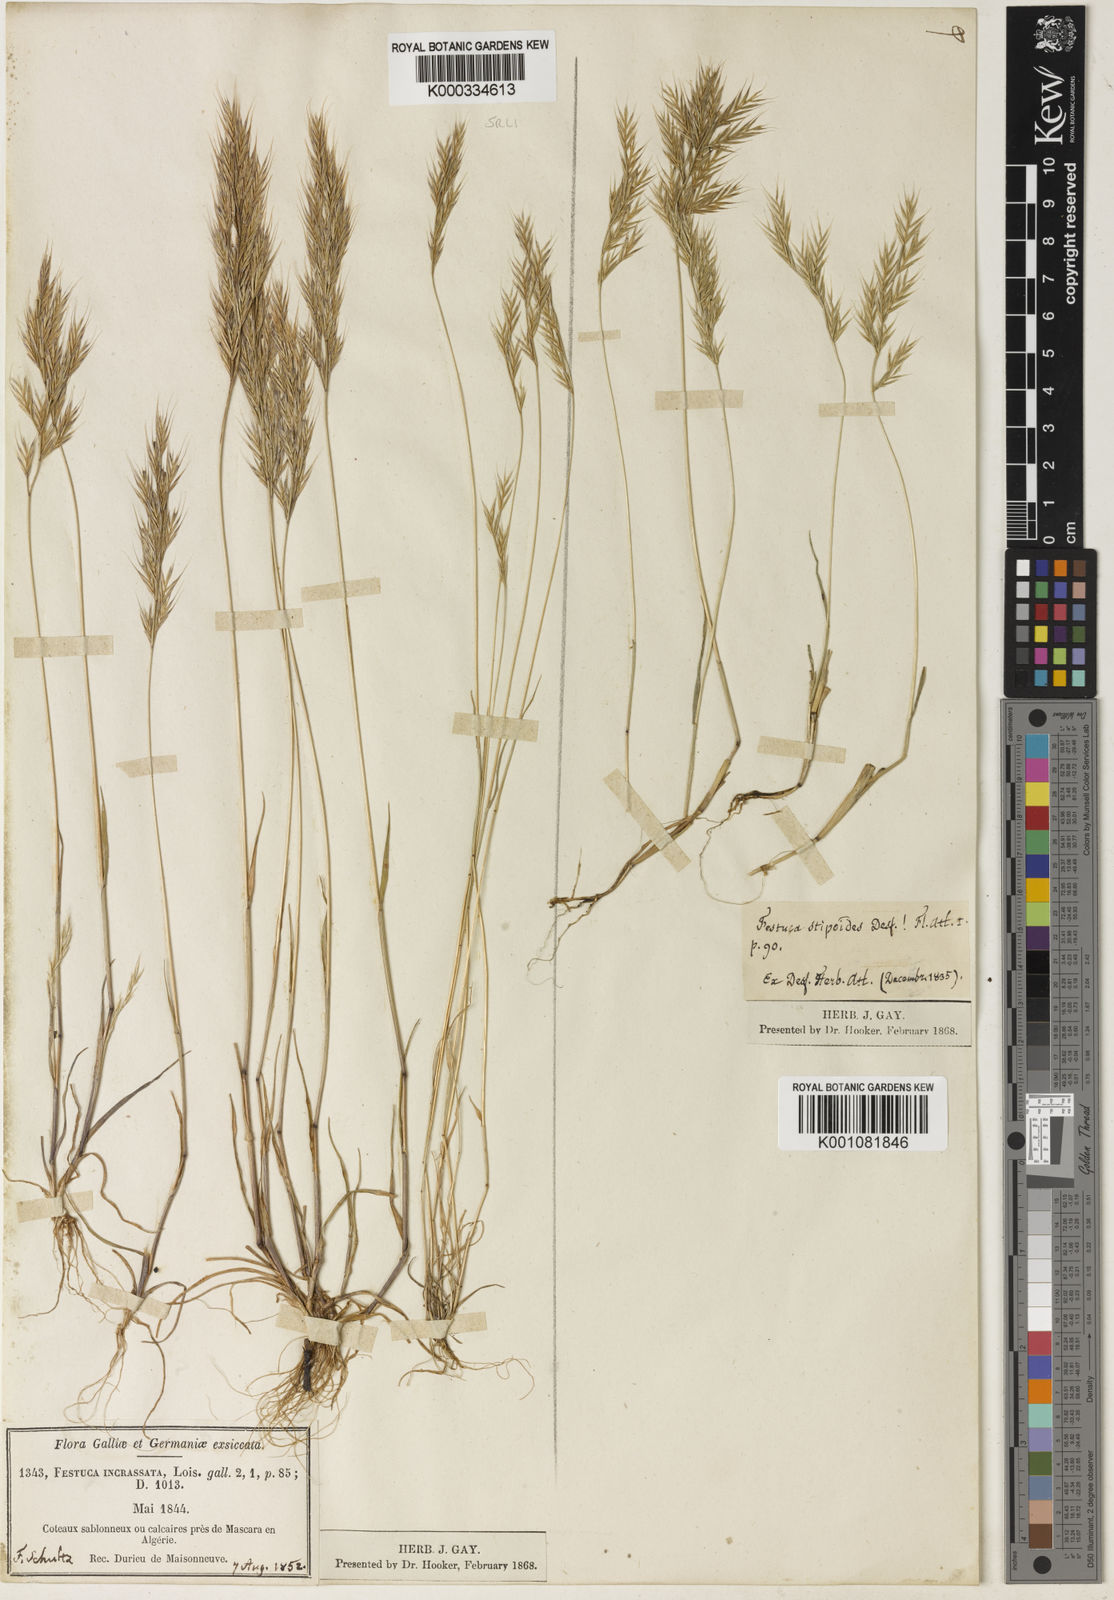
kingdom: Plantae
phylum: Tracheophyta
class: Liliopsida
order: Poales
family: Poaceae
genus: Vulpiella
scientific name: Vulpiella stipoides
